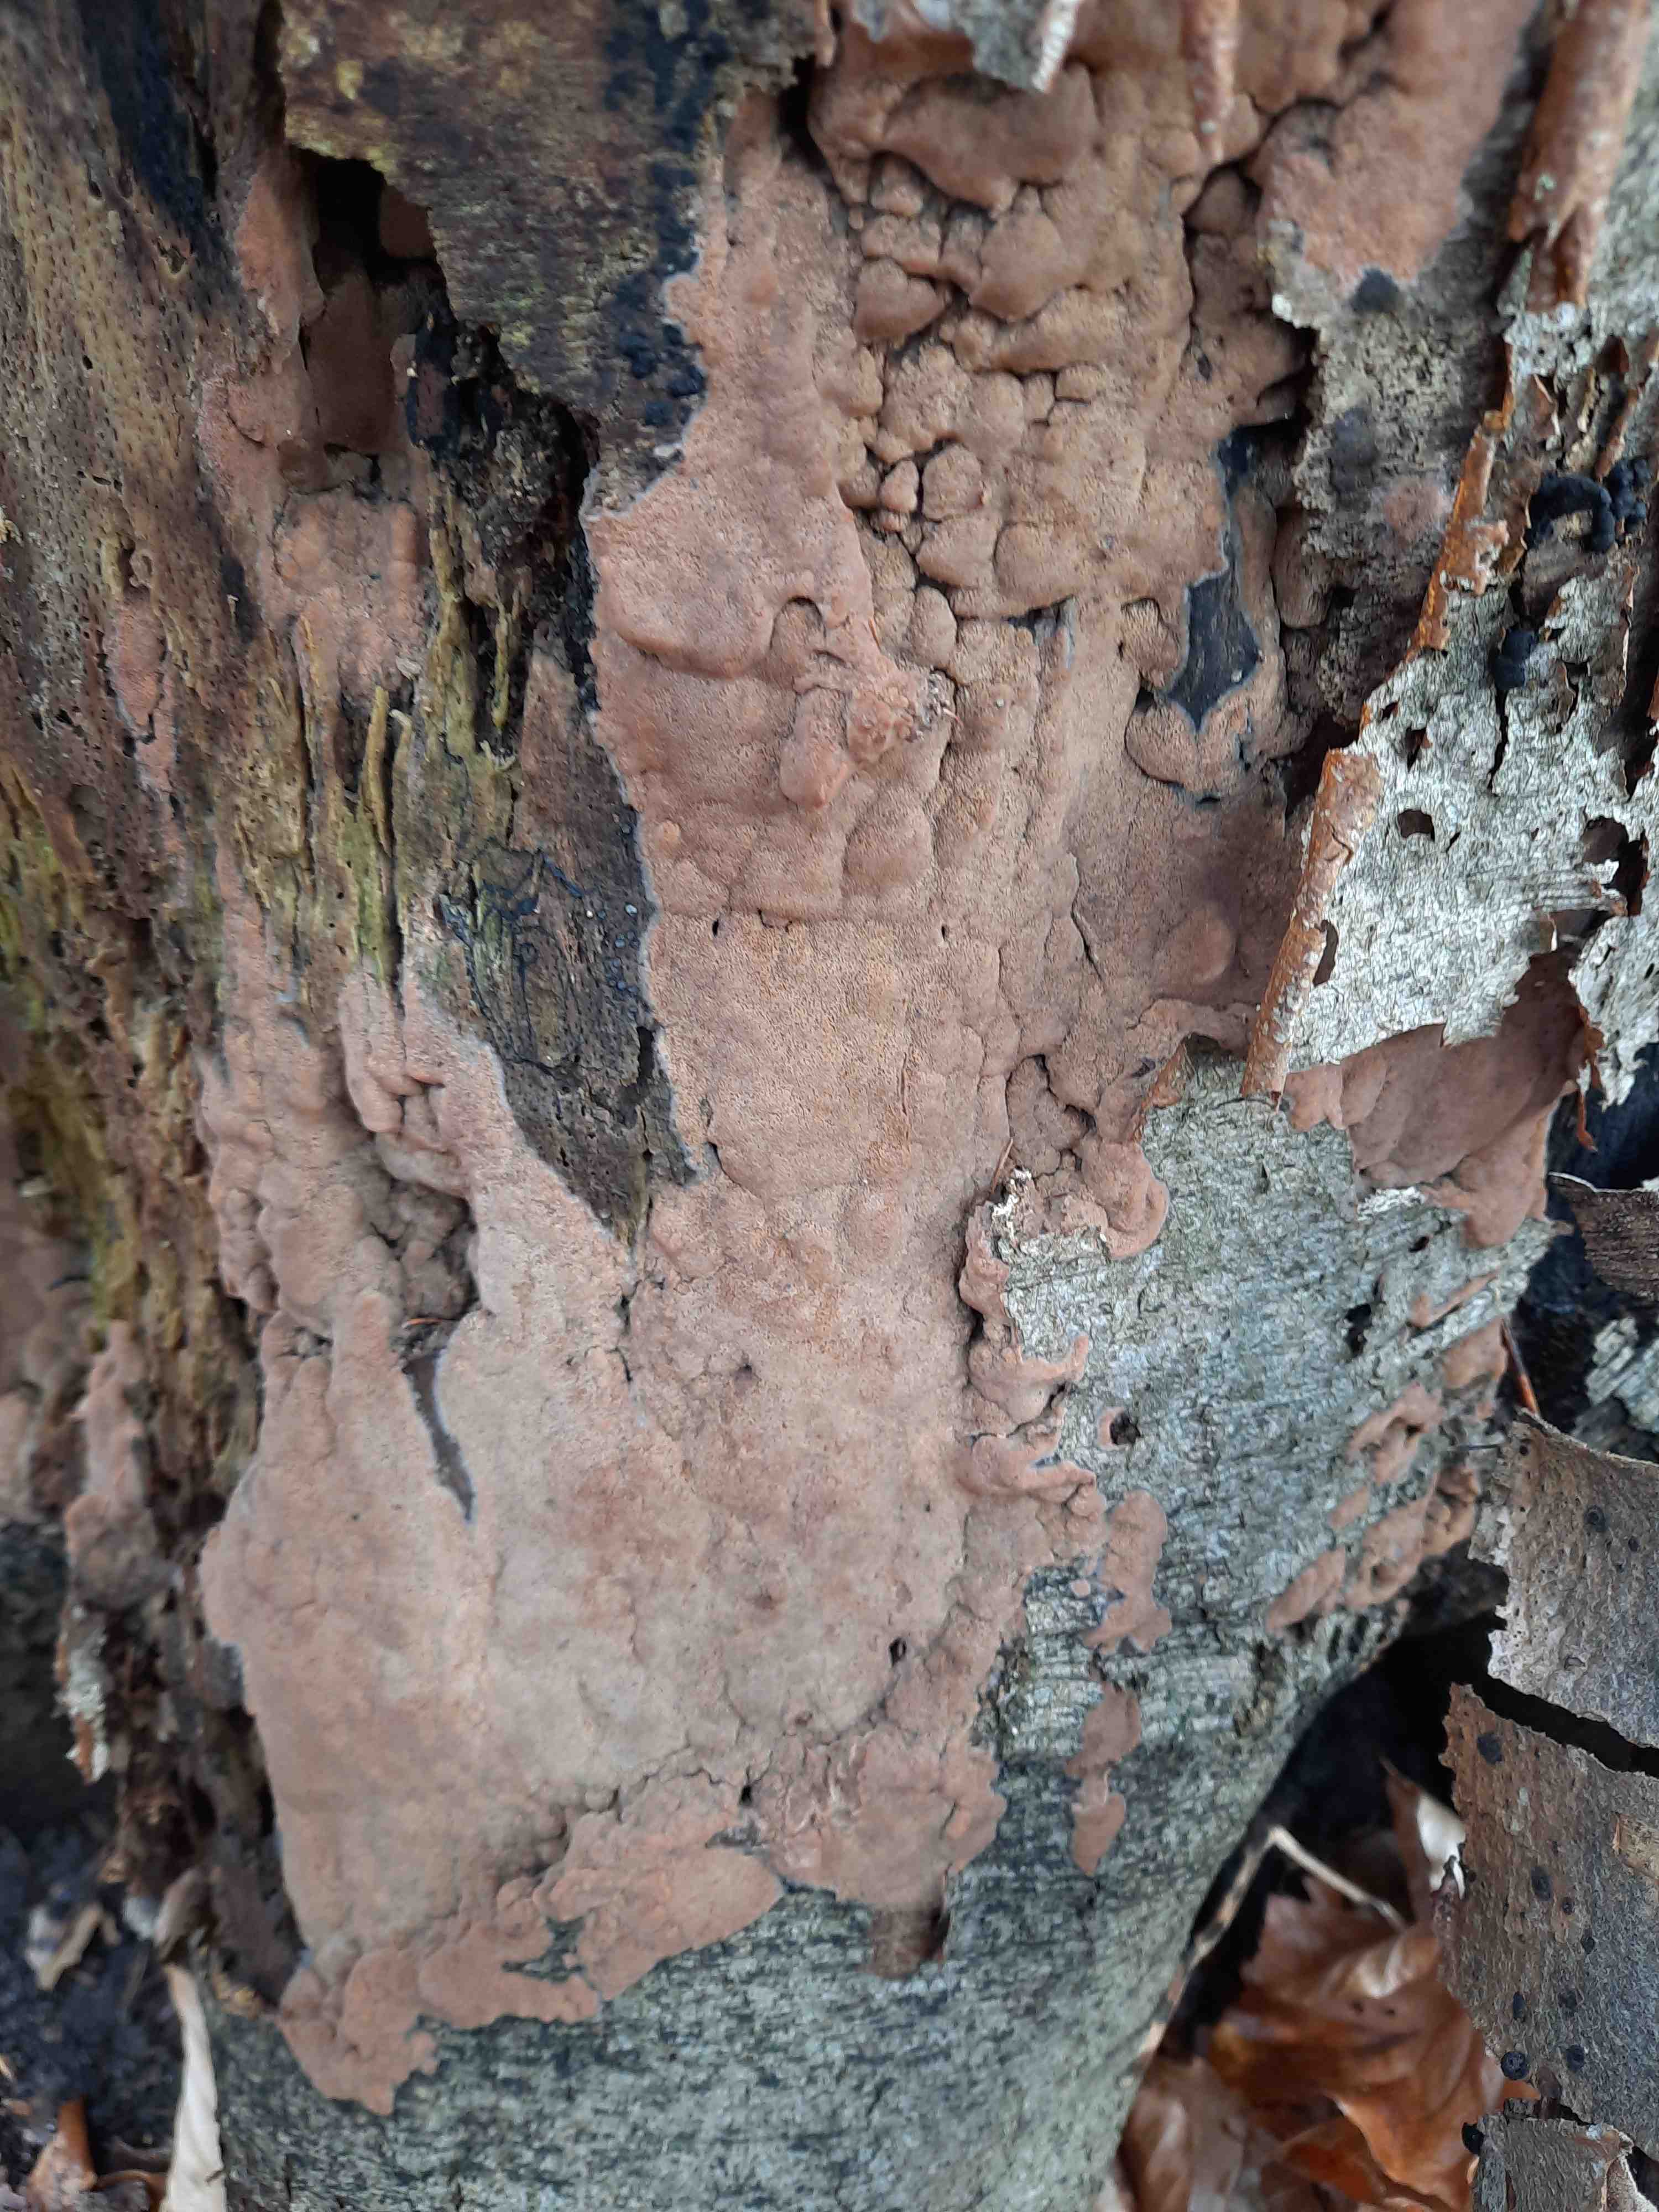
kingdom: Fungi
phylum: Basidiomycota
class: Agaricomycetes
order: Polyporales
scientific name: Polyporales
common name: poresvampordenen
